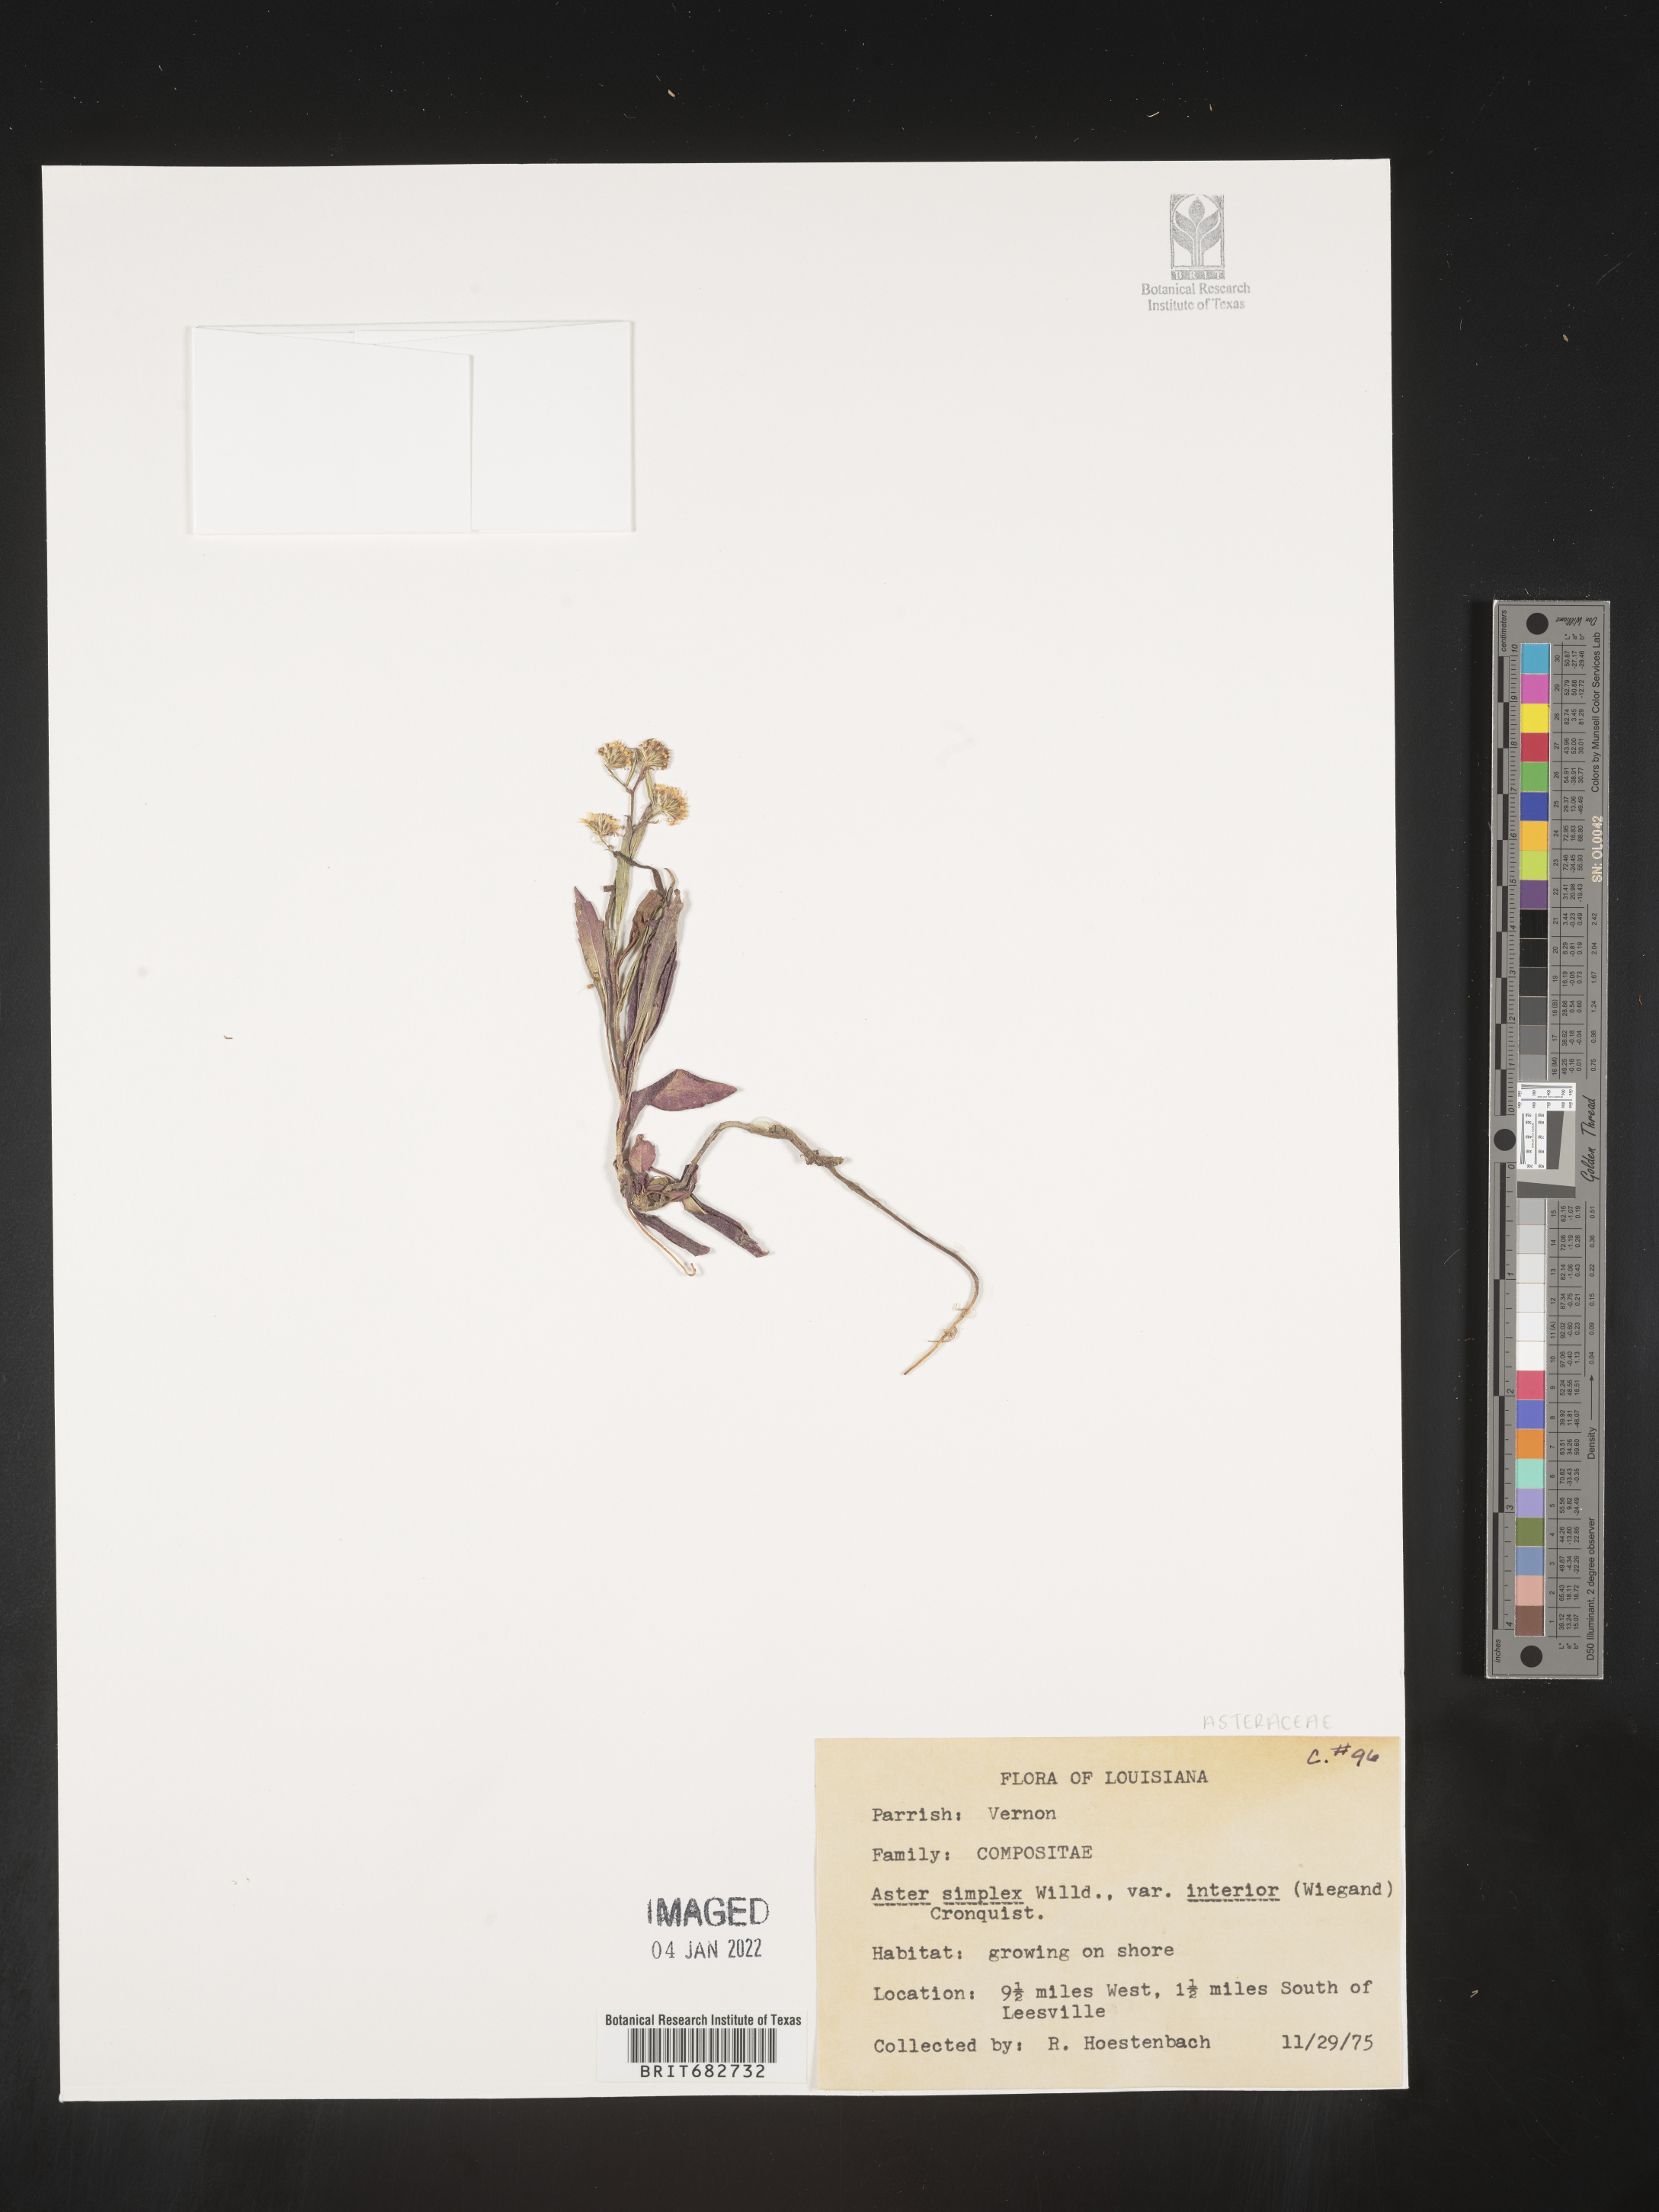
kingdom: Plantae
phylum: Tracheophyta
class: Magnoliopsida
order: Asterales
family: Asteraceae
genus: Aster
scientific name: Aster
